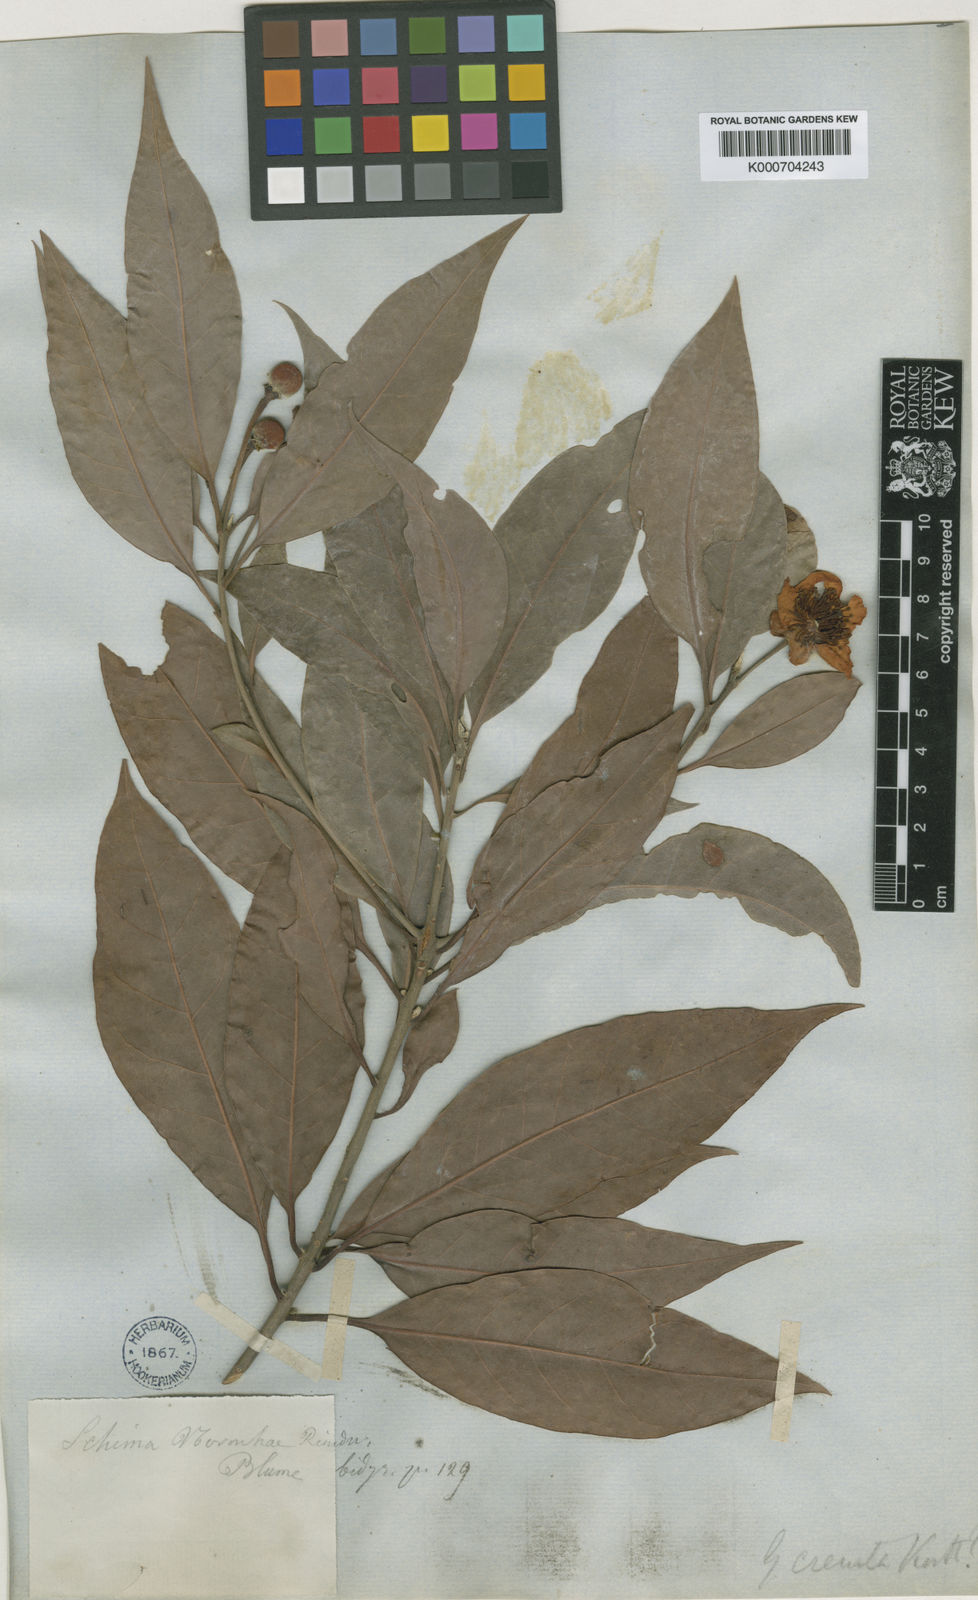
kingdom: Plantae
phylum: Tracheophyta
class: Magnoliopsida
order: Ericales
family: Theaceae
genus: Schima
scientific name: Schima
